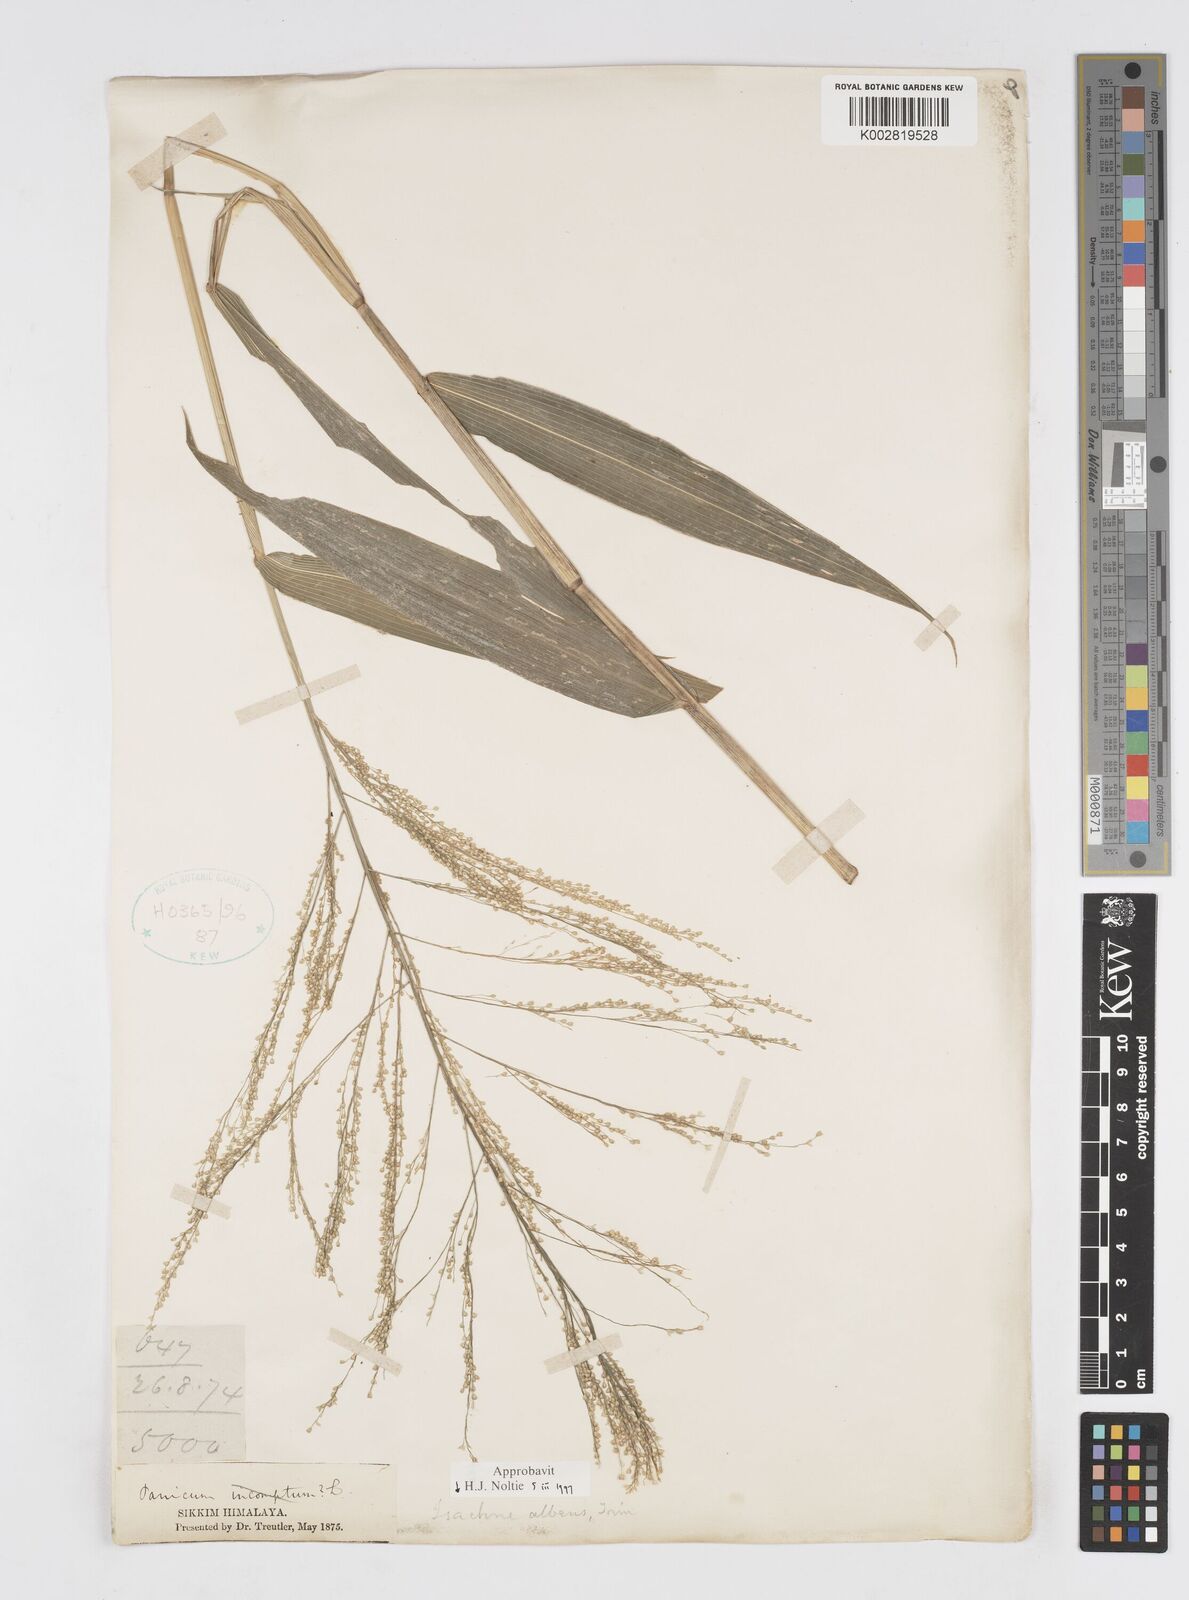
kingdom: Plantae
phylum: Tracheophyta
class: Liliopsida
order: Poales
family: Poaceae
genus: Isachne
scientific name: Isachne albens
